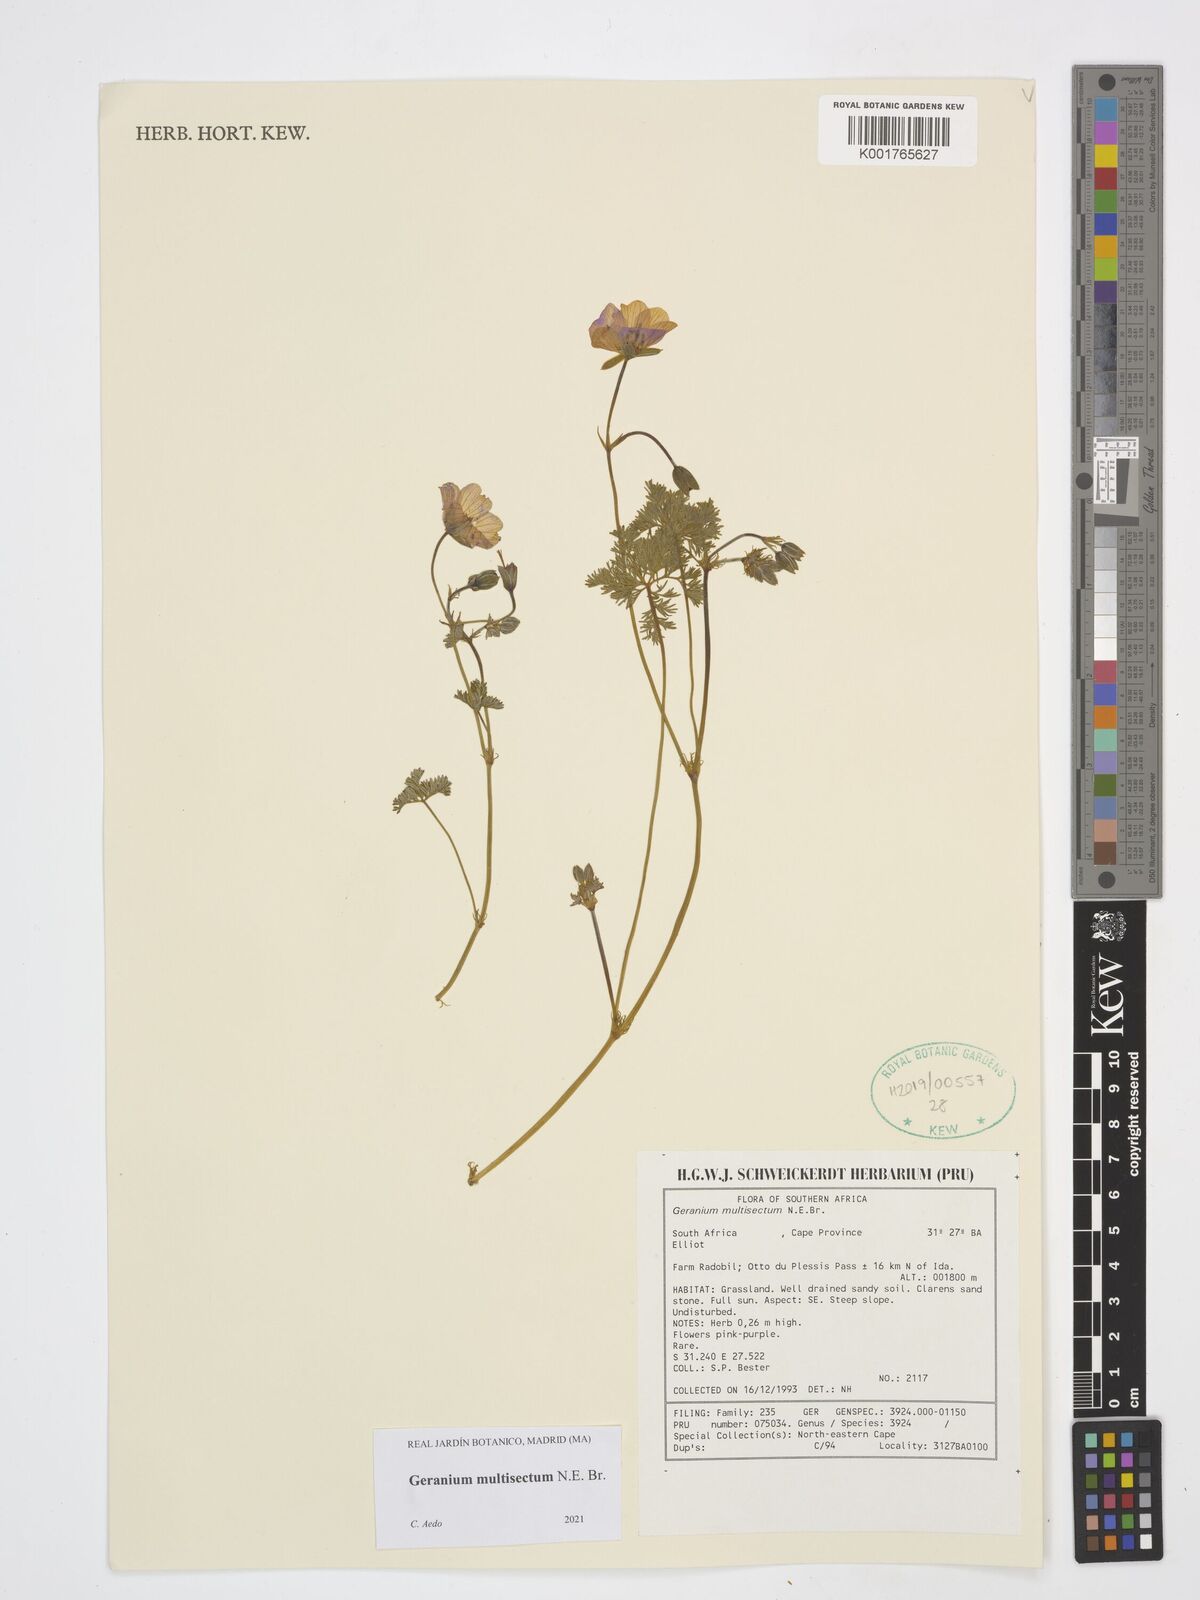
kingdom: Plantae
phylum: Tracheophyta
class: Magnoliopsida
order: Geraniales
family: Geraniaceae
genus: Geranium
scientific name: Geranium multisectum
